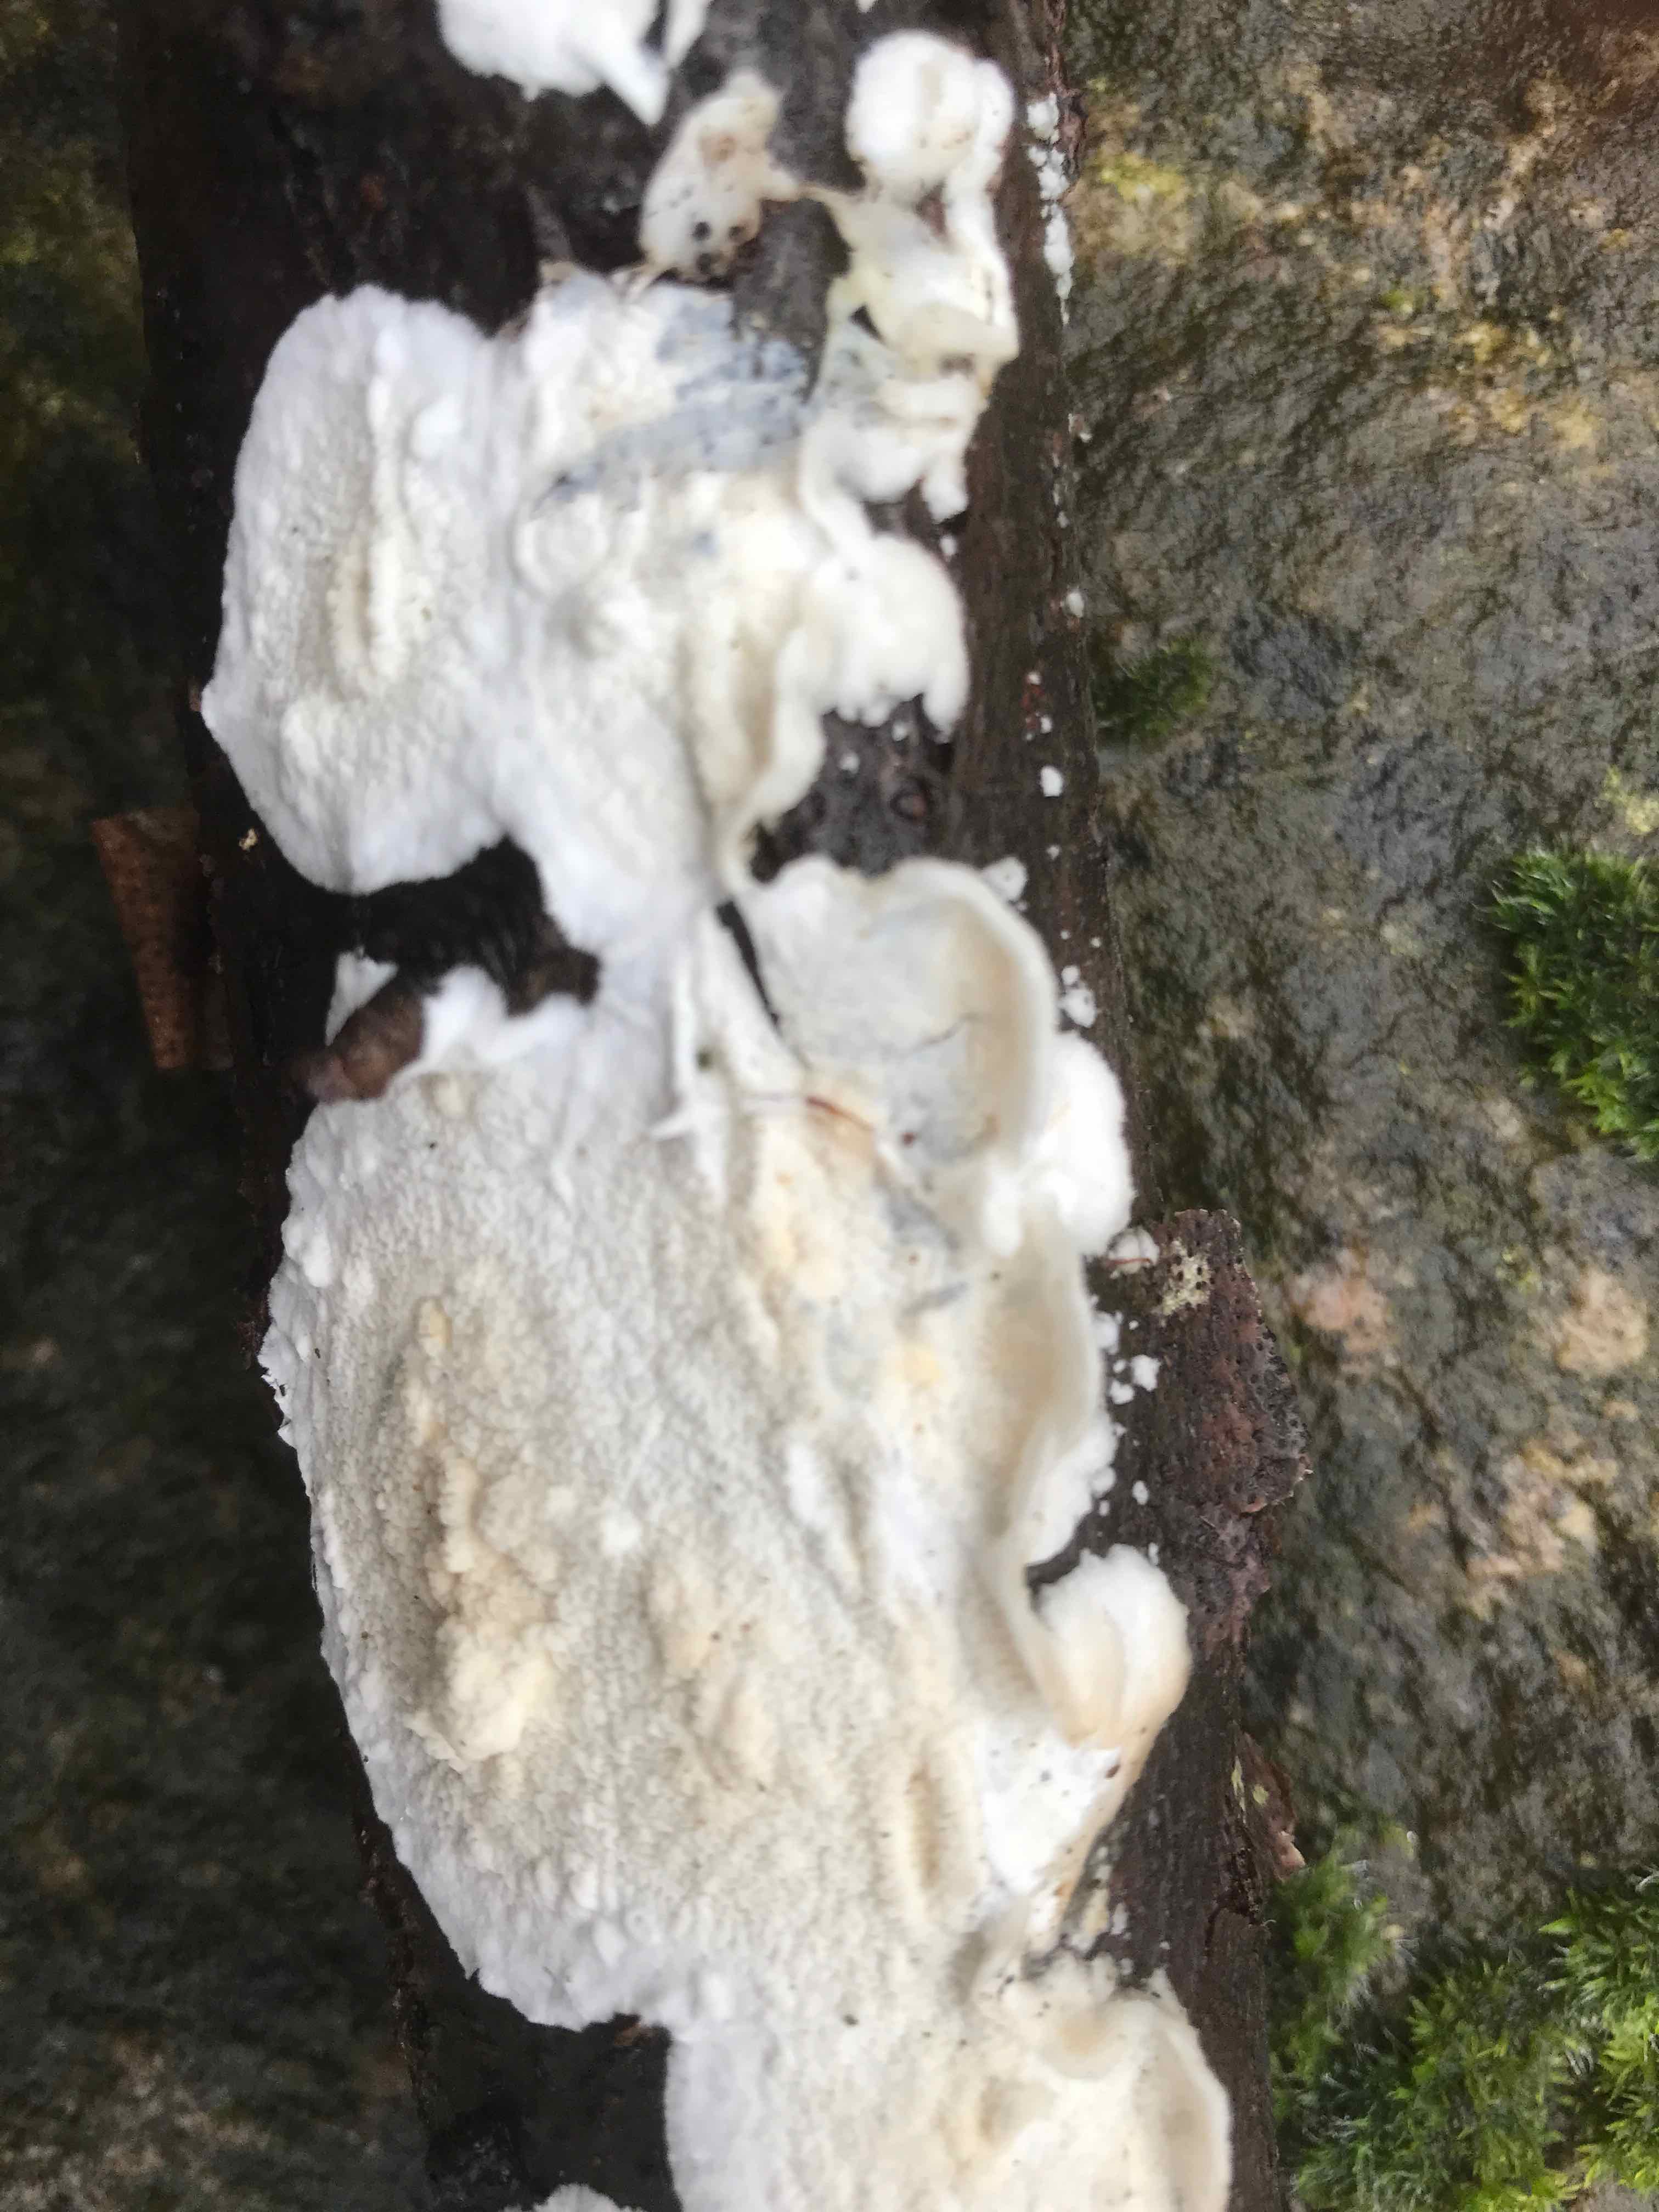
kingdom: Fungi
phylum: Basidiomycota
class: Agaricomycetes
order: Polyporales
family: Irpicaceae
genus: Byssomerulius
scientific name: Byssomerulius corium
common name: læder-åresvamp
